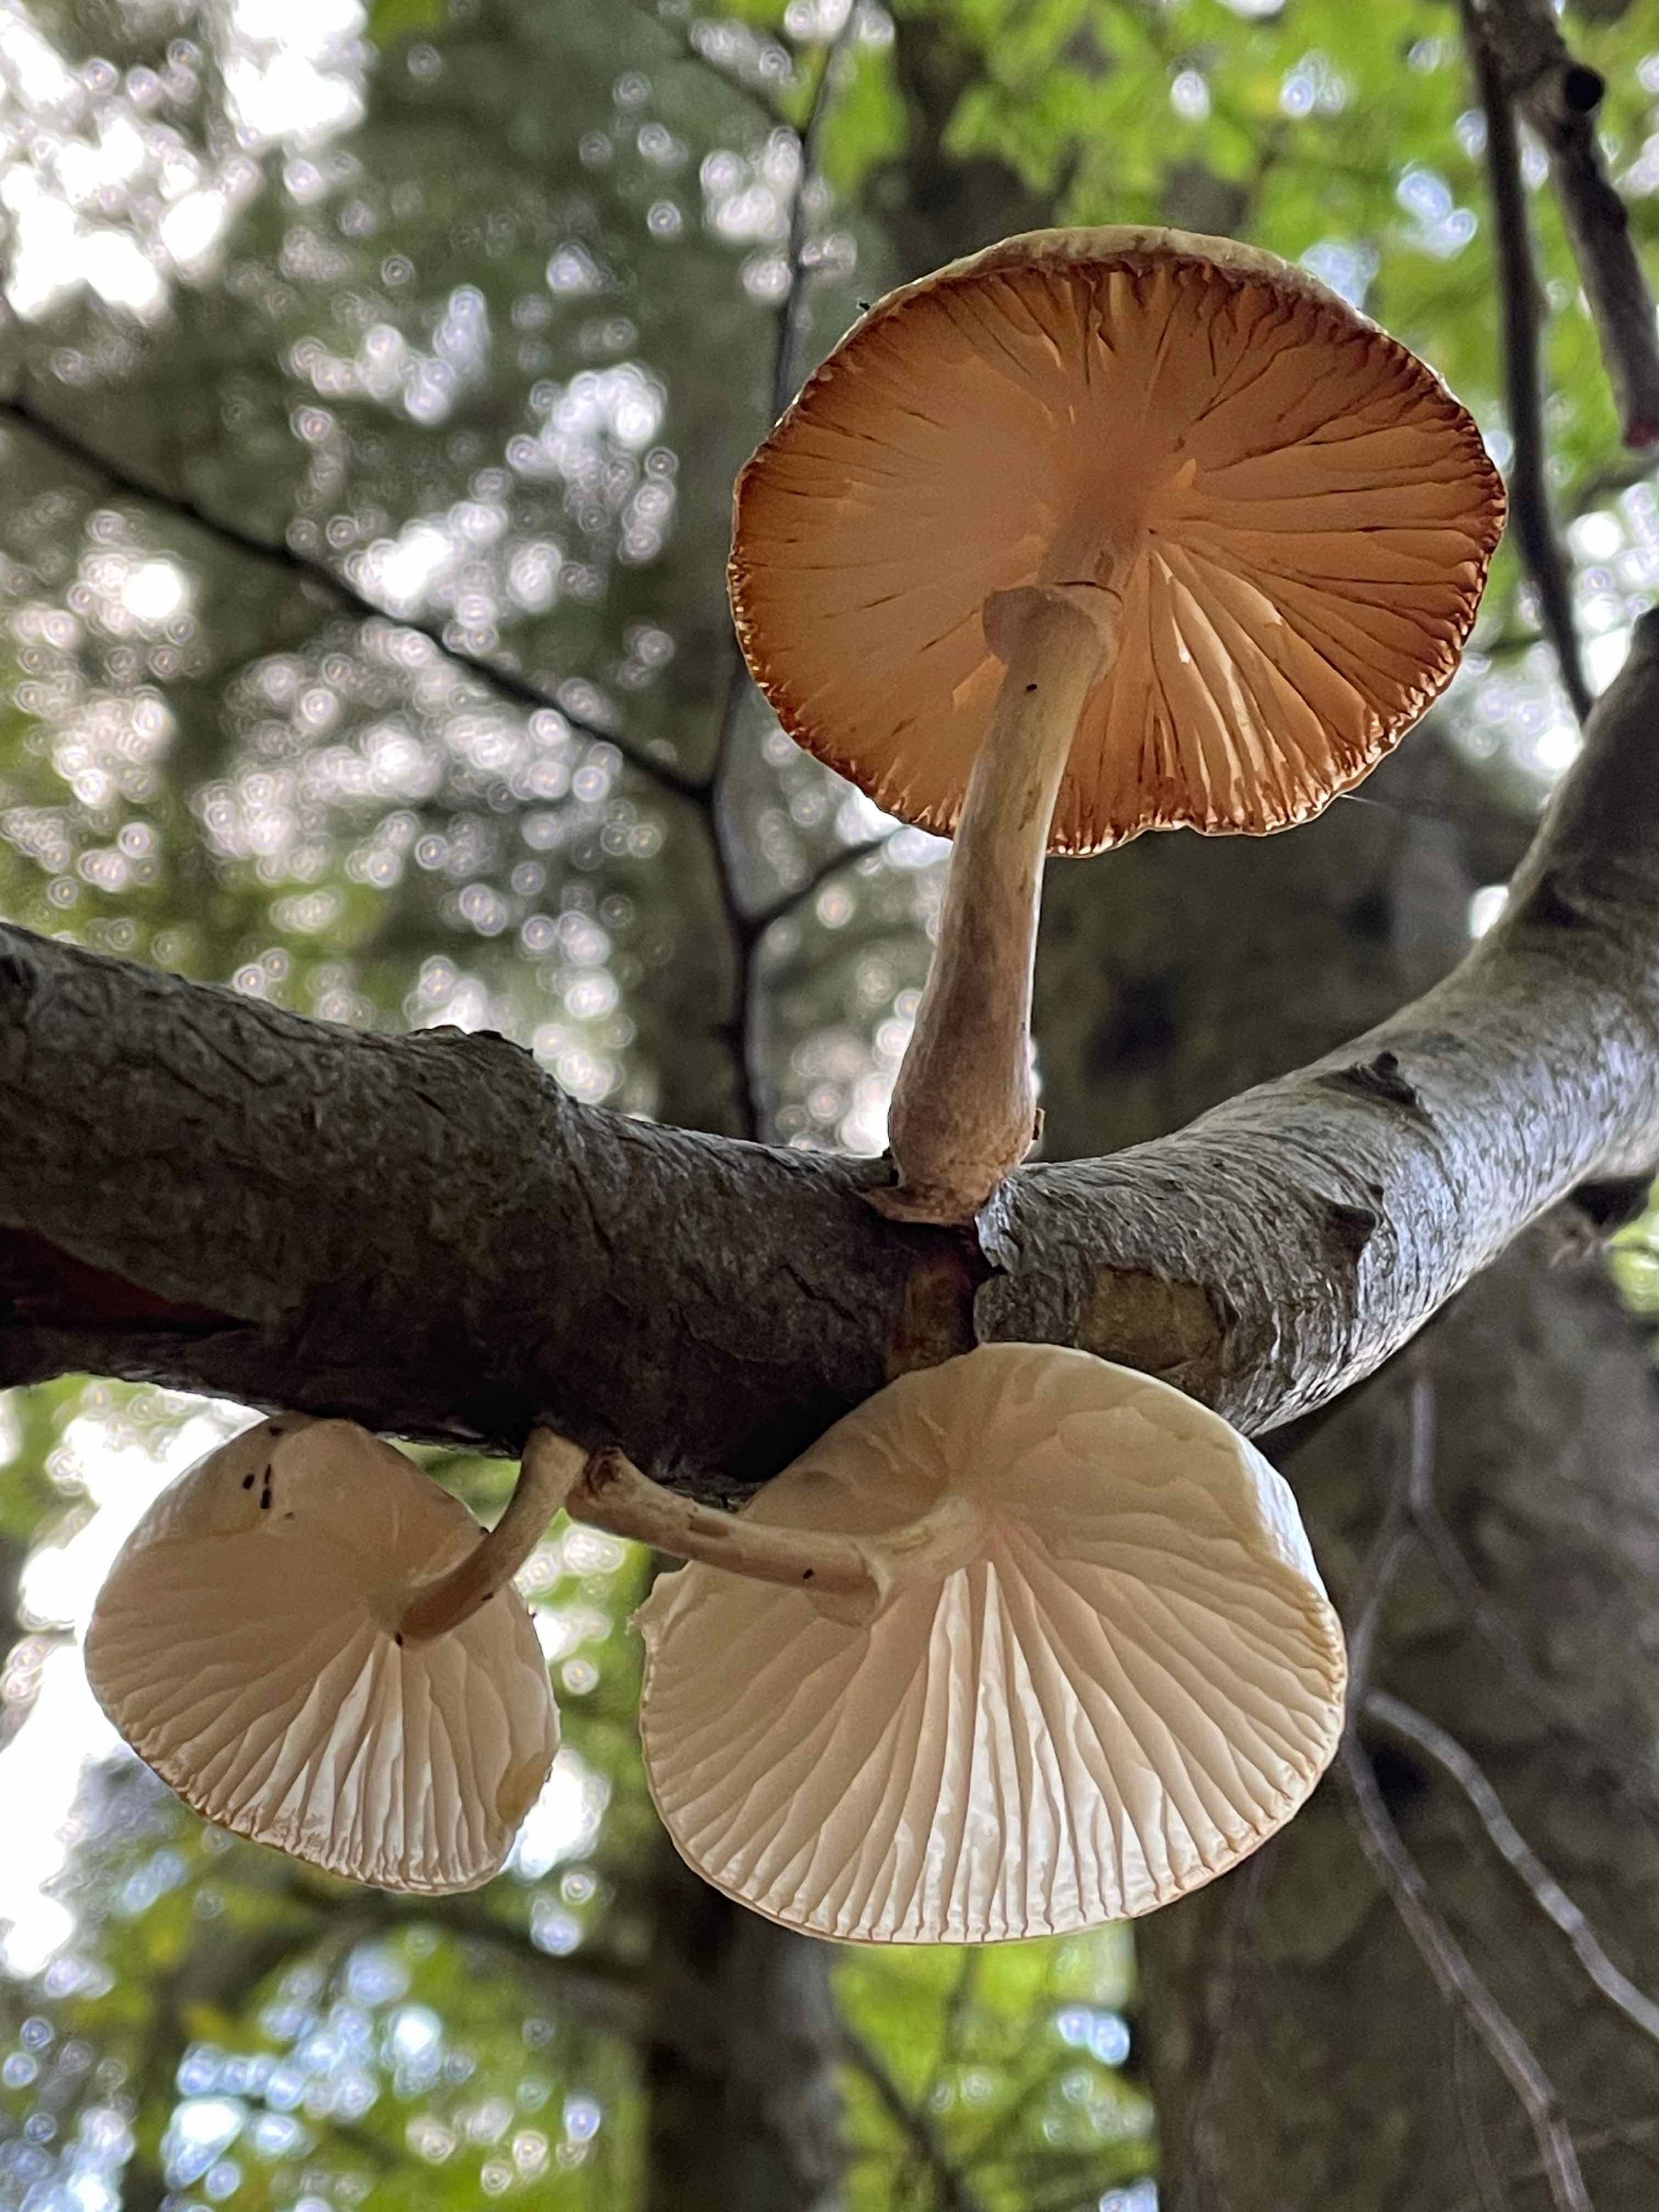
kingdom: Fungi
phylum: Basidiomycota
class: Agaricomycetes
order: Agaricales
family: Physalacriaceae
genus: Mucidula
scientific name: Mucidula mucida
